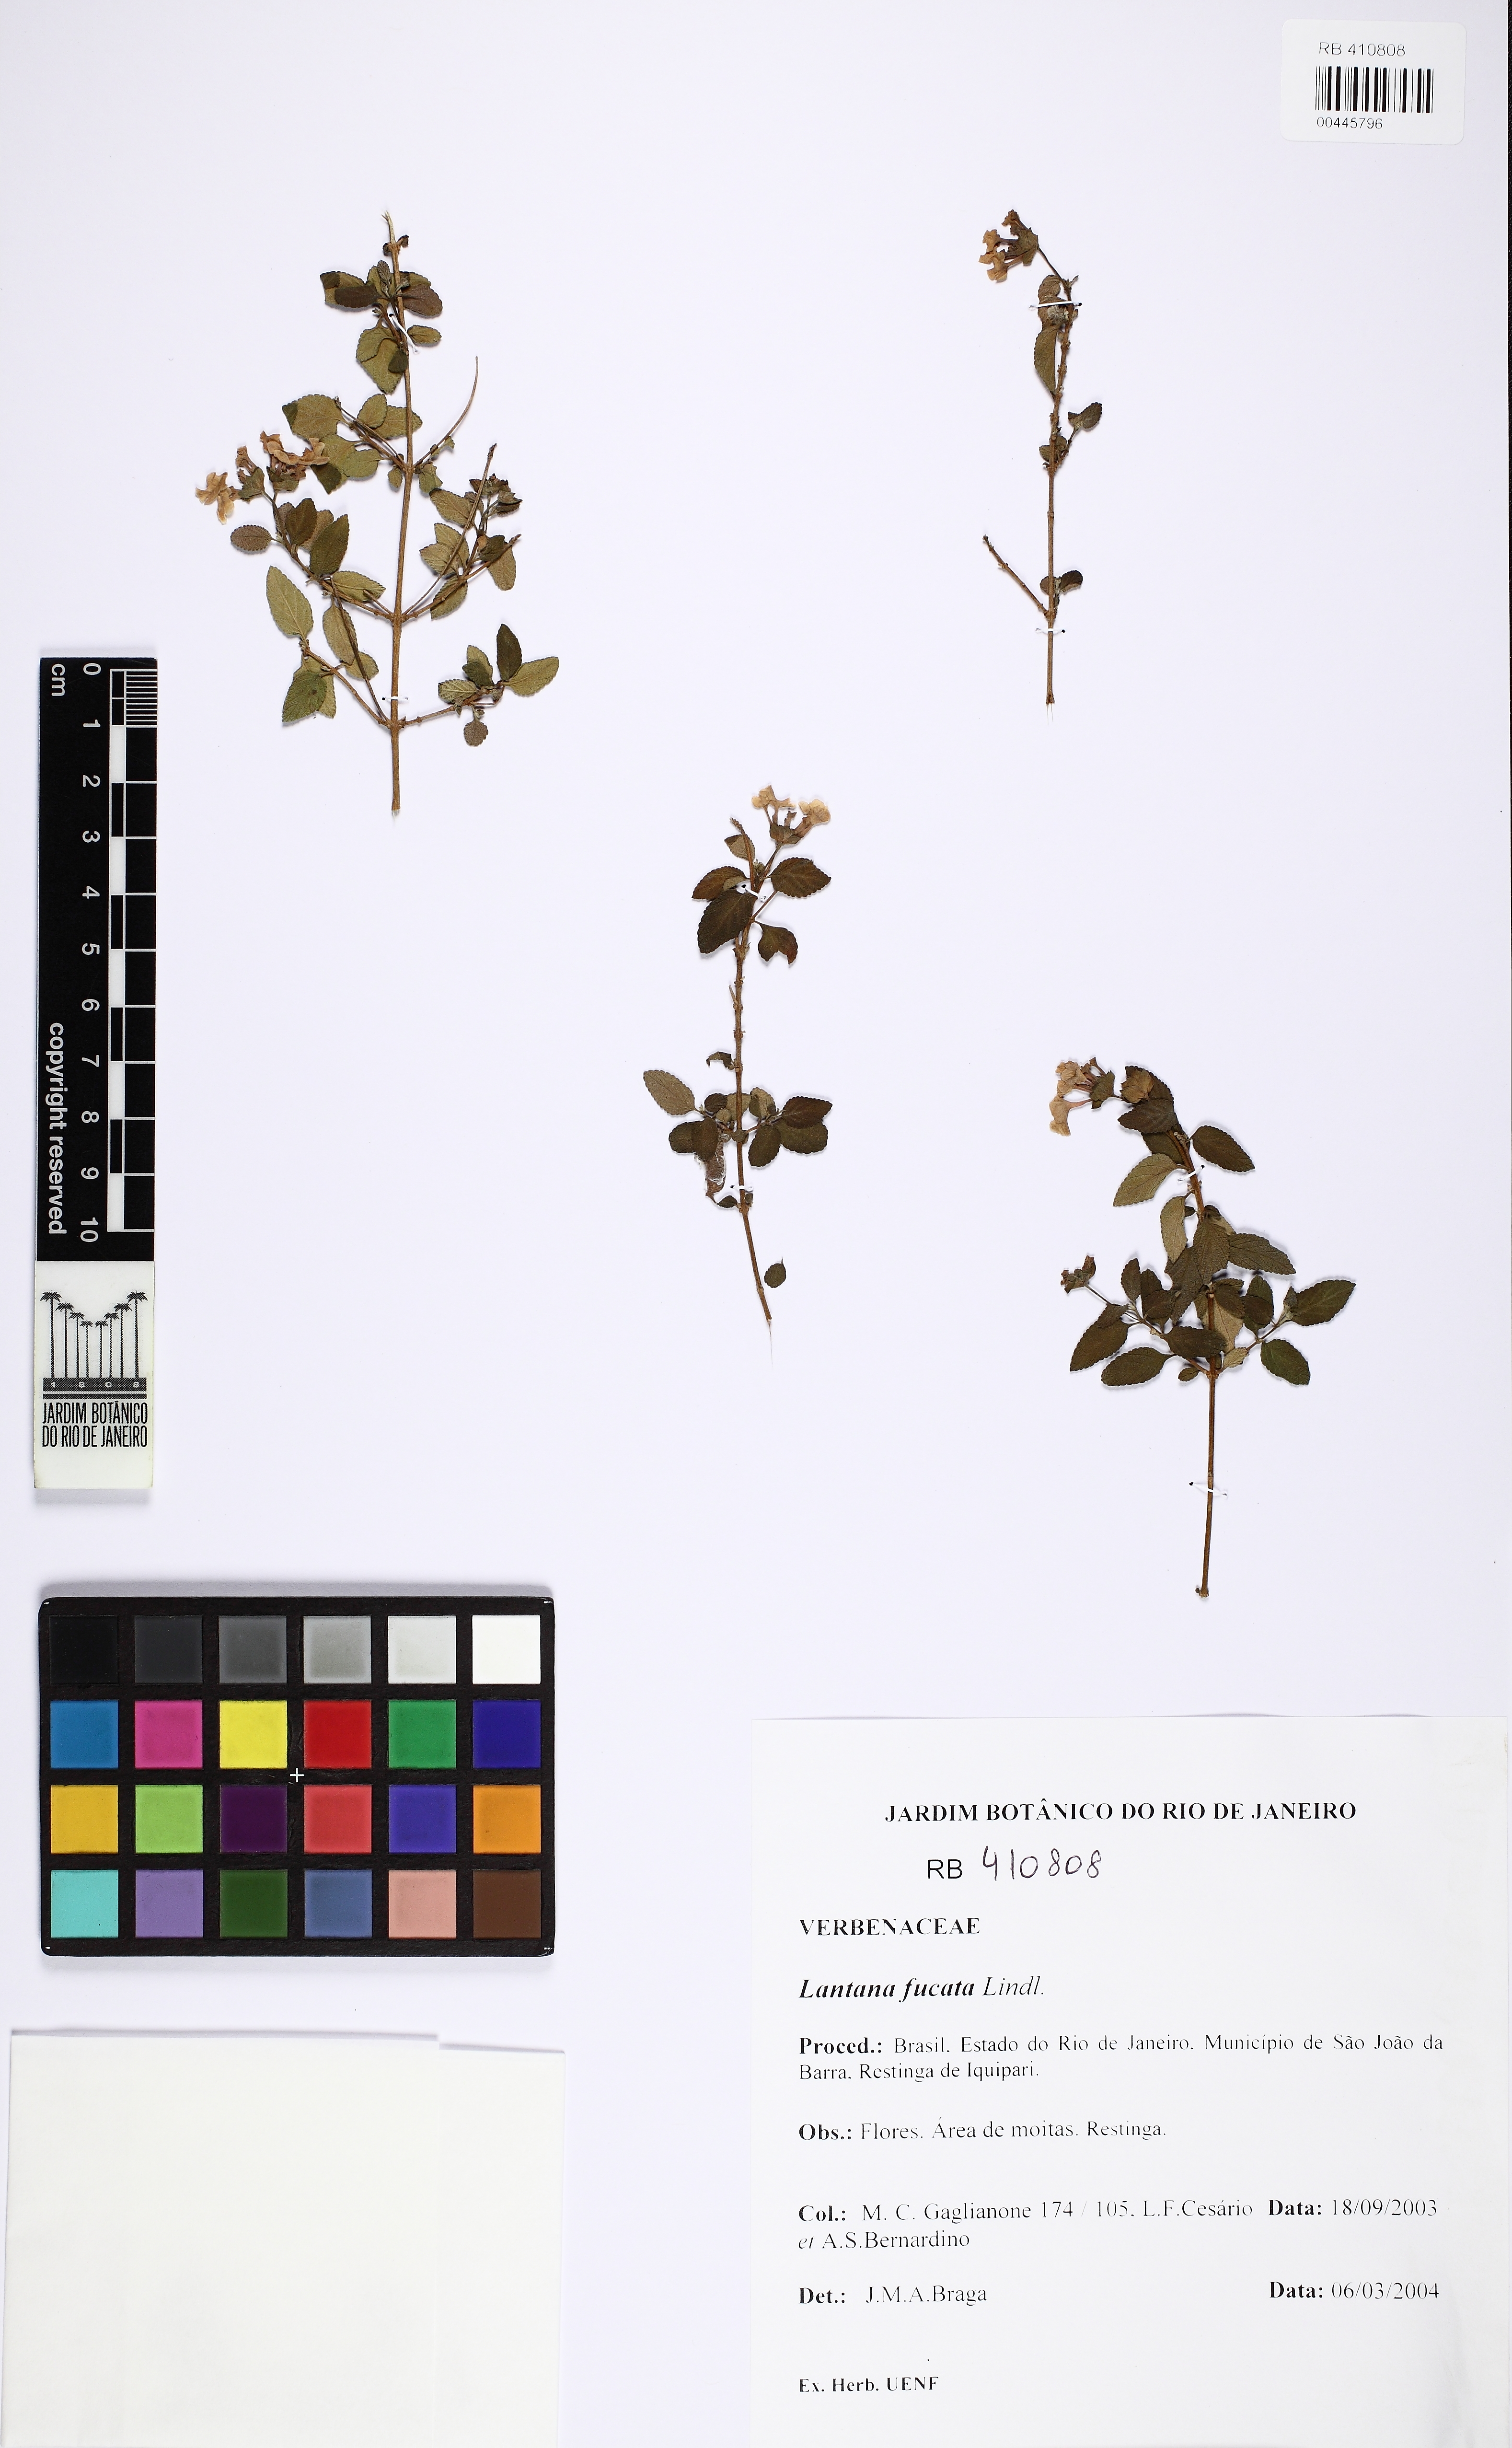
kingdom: Plantae
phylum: Tracheophyta
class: Magnoliopsida
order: Lamiales
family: Verbenaceae
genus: Lantana
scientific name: Lantana fucata
